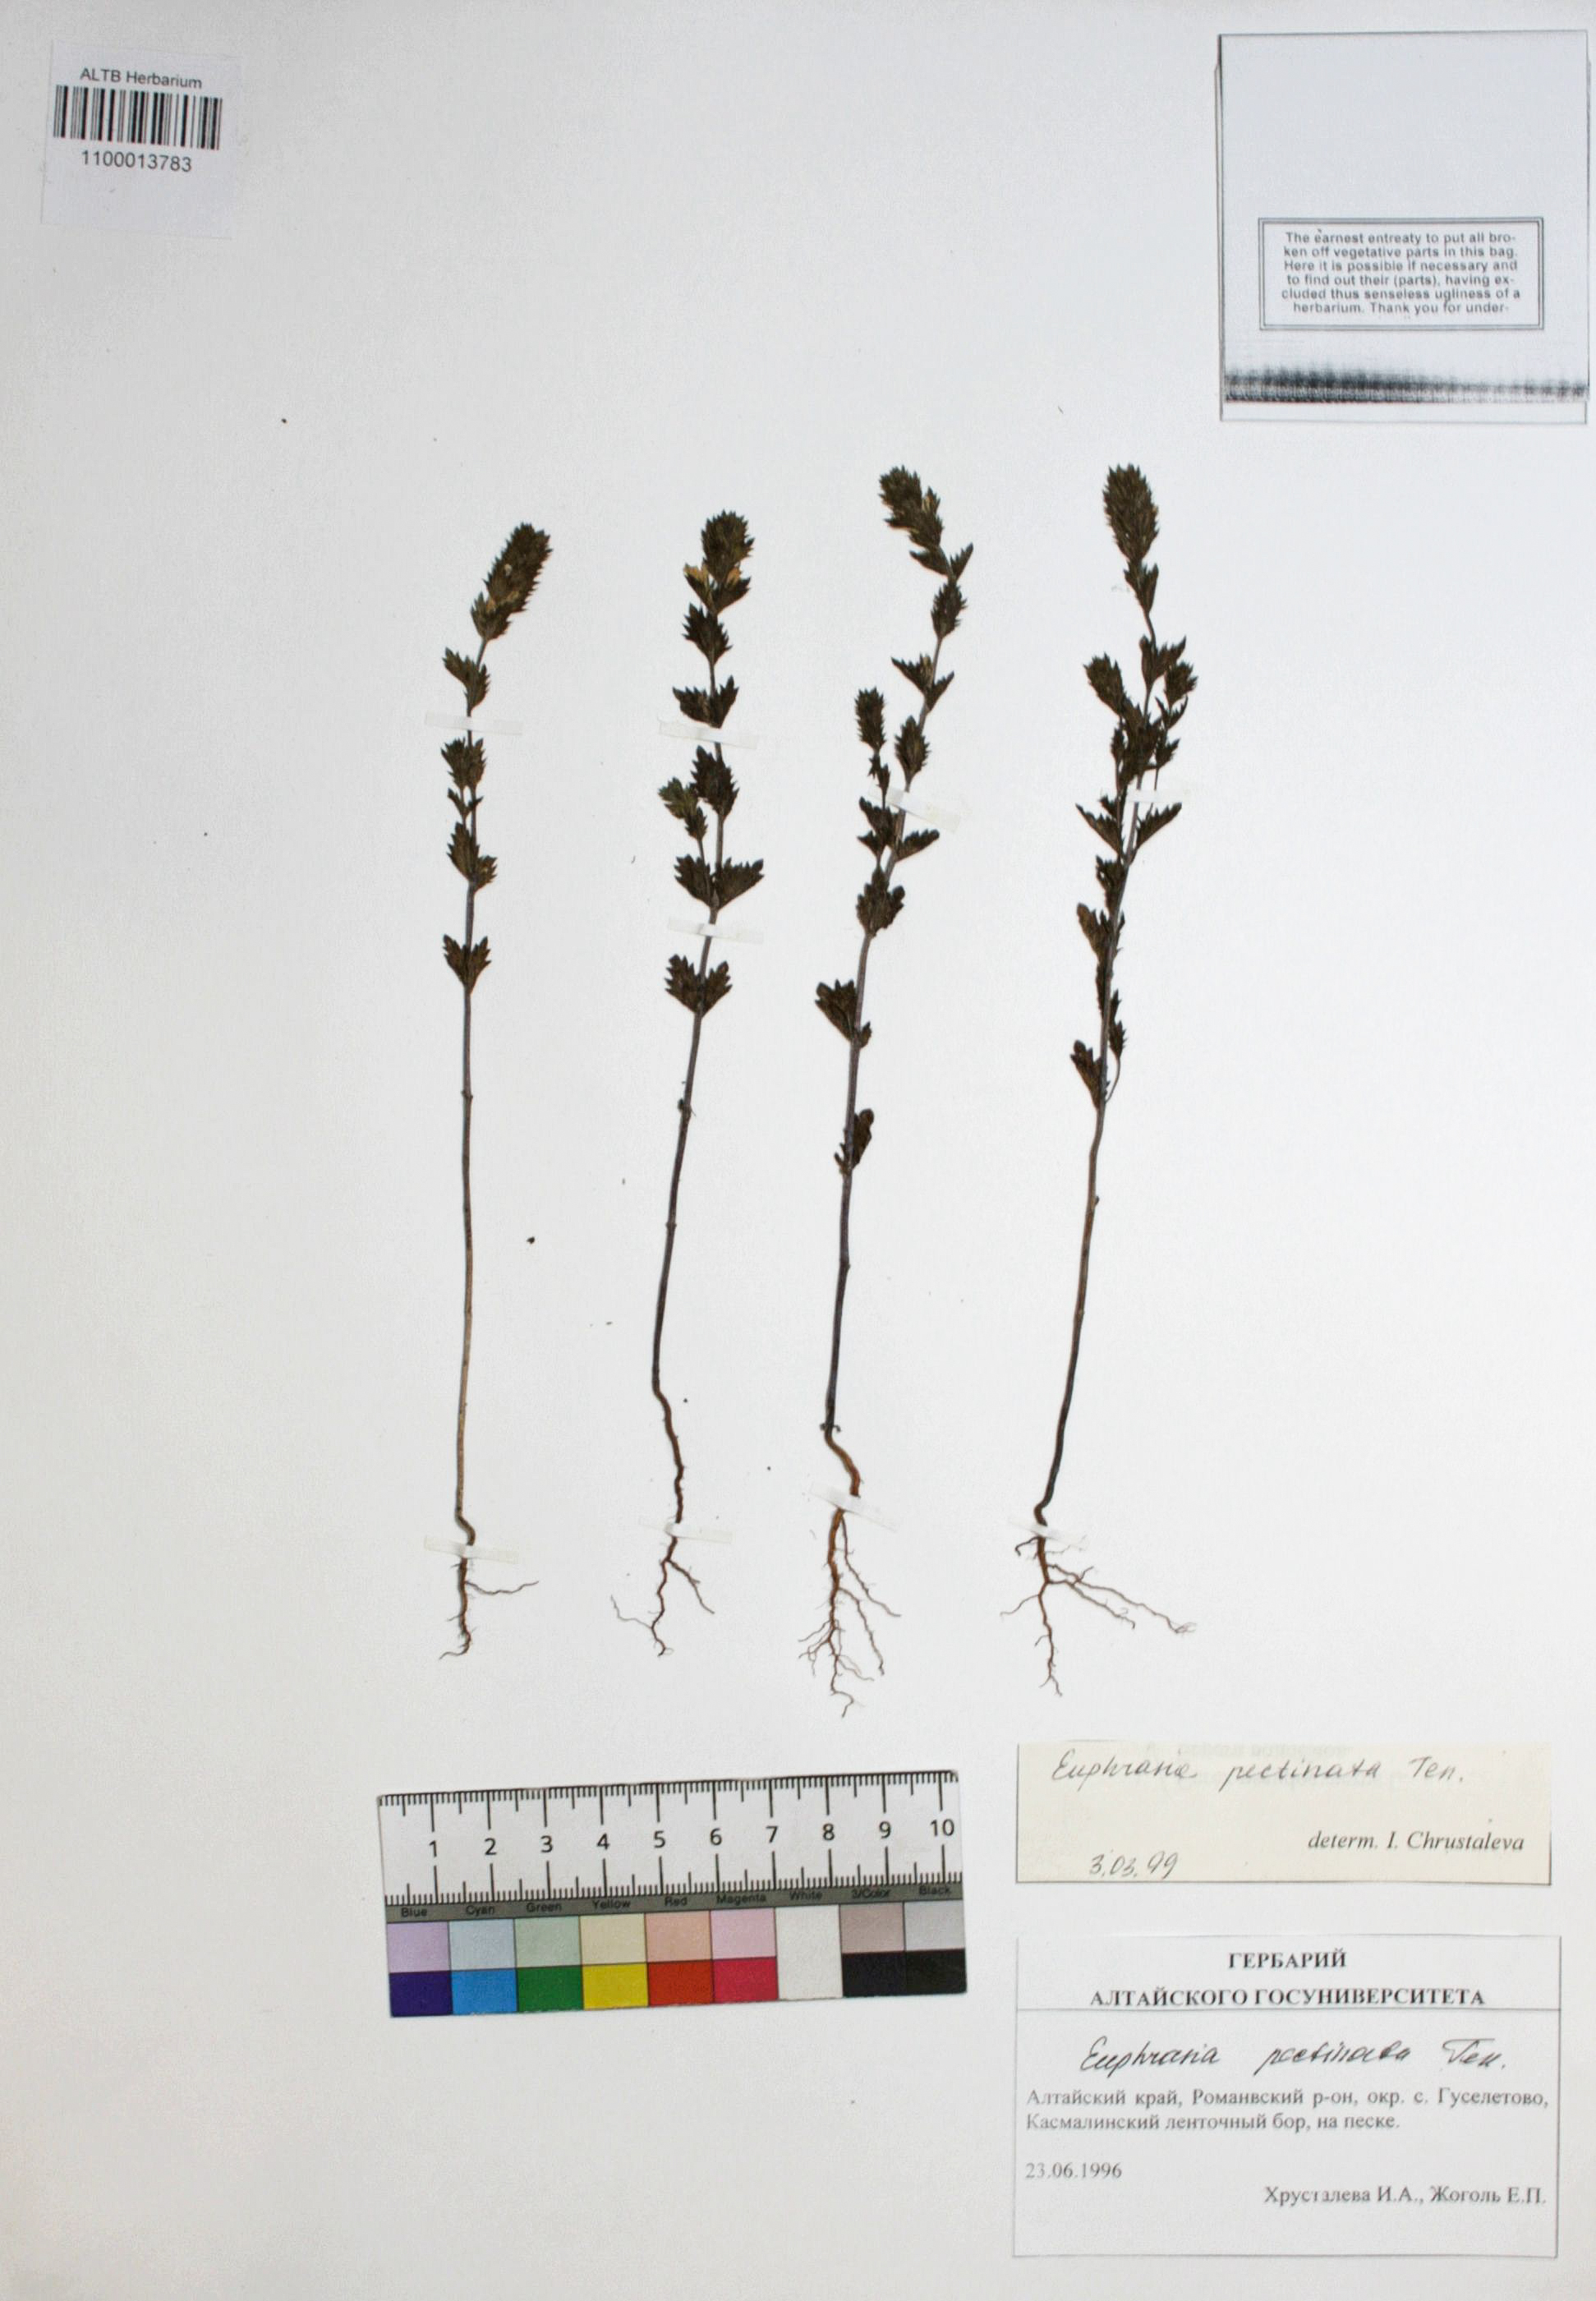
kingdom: Plantae
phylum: Tracheophyta
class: Magnoliopsida
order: Lamiales
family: Orobanchaceae
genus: Euphrasia
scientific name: Euphrasia pectinata
